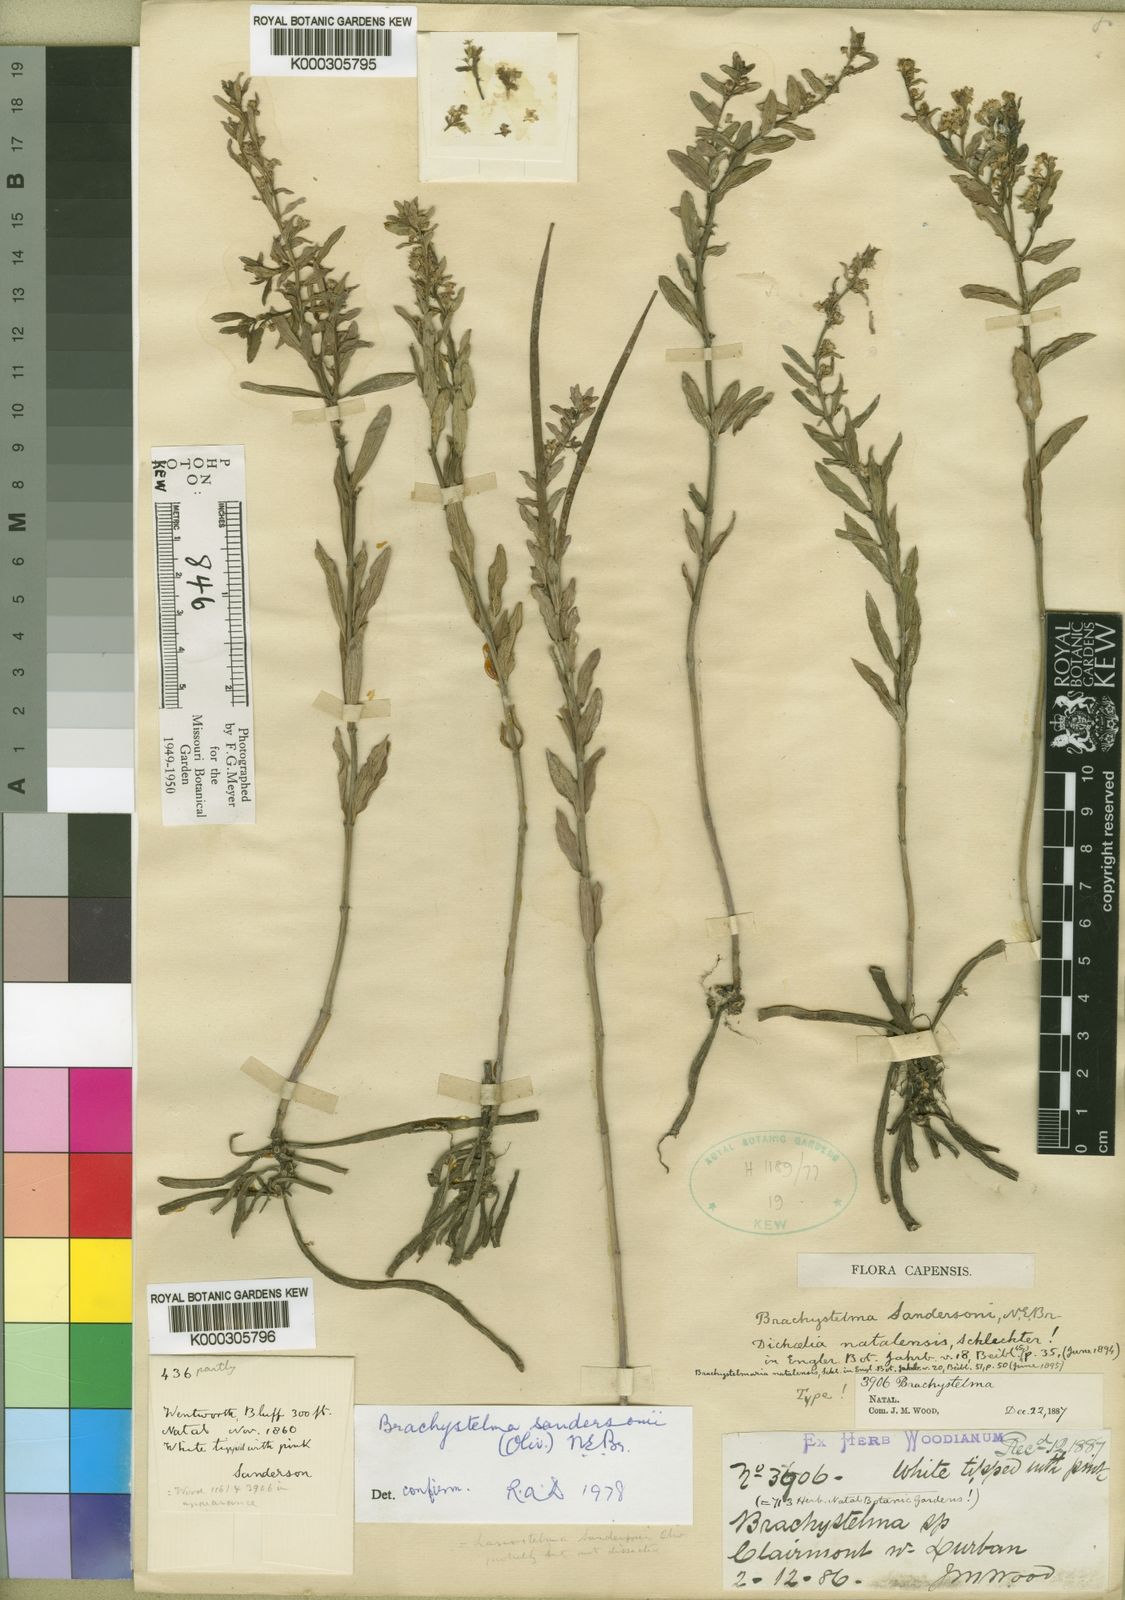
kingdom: Plantae
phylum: Tracheophyta
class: Magnoliopsida
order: Gentianales
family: Apocynaceae
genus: Ceropegia
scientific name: Ceropegia sandersoniana
